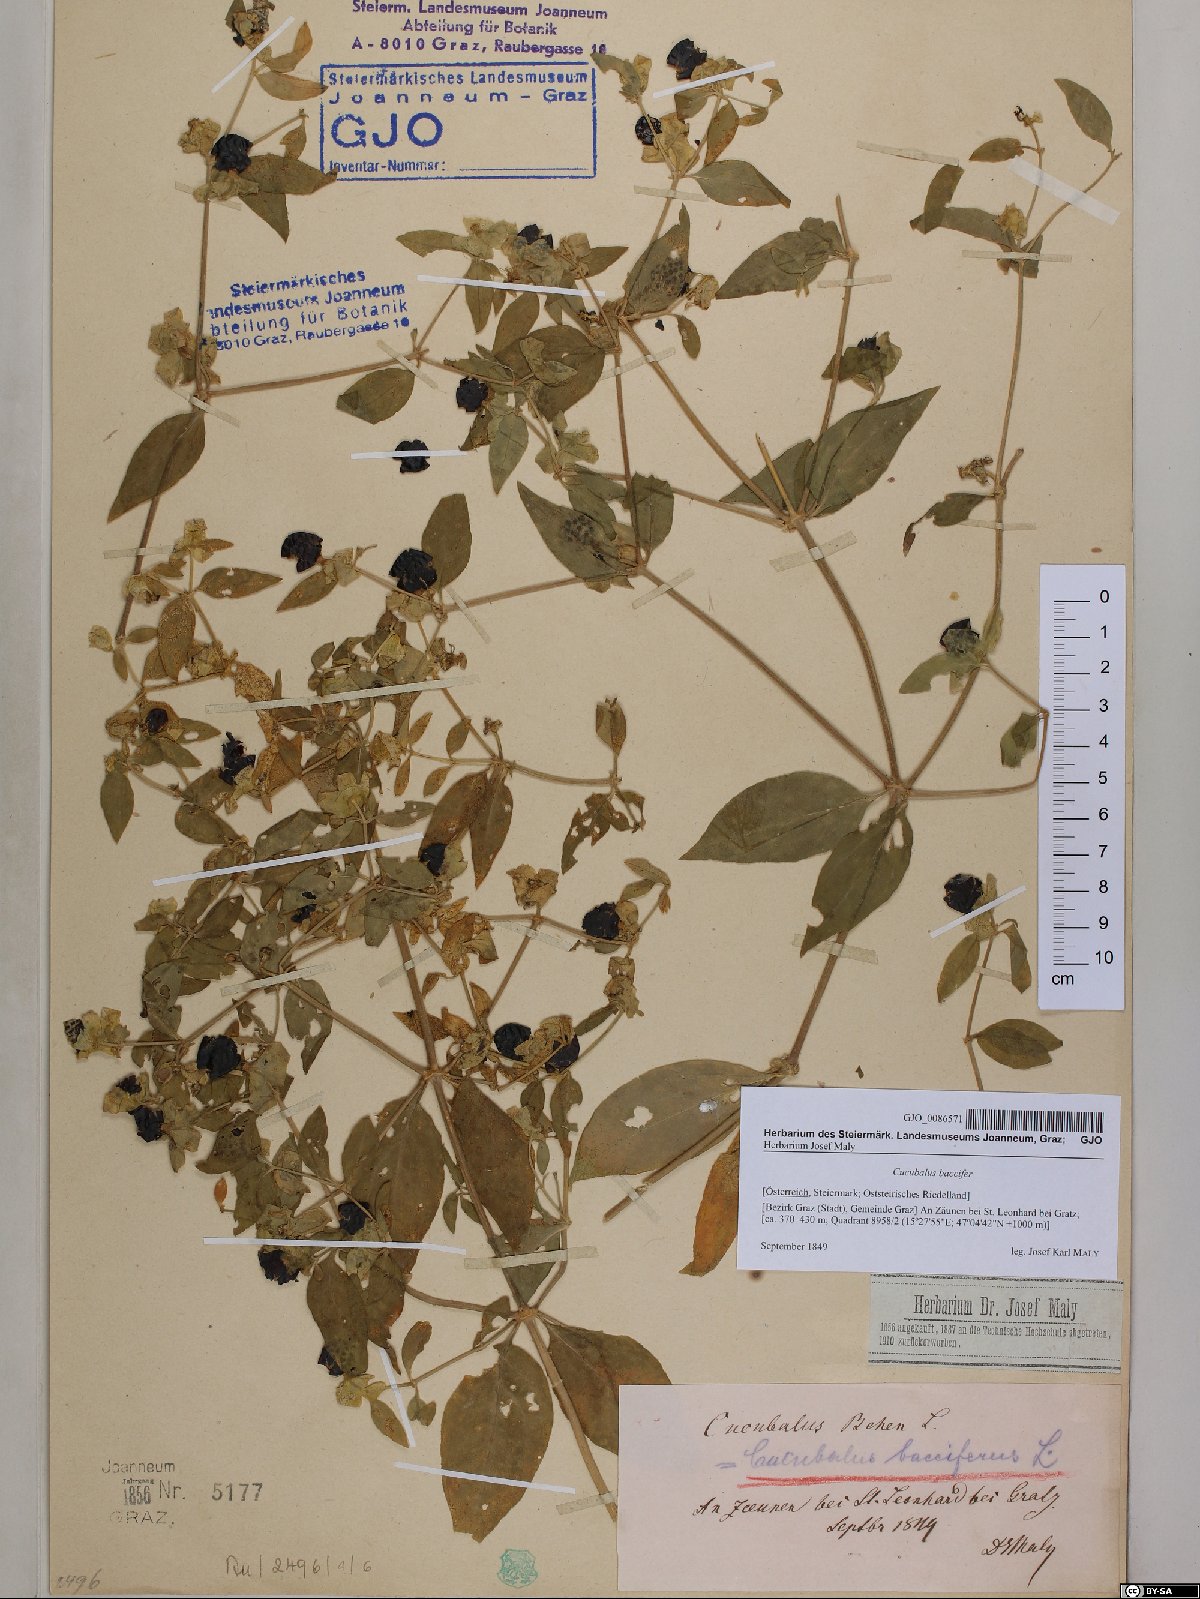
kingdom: Plantae
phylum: Tracheophyta
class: Magnoliopsida
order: Caryophyllales
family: Caryophyllaceae
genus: Silene
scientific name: Silene baccifera
